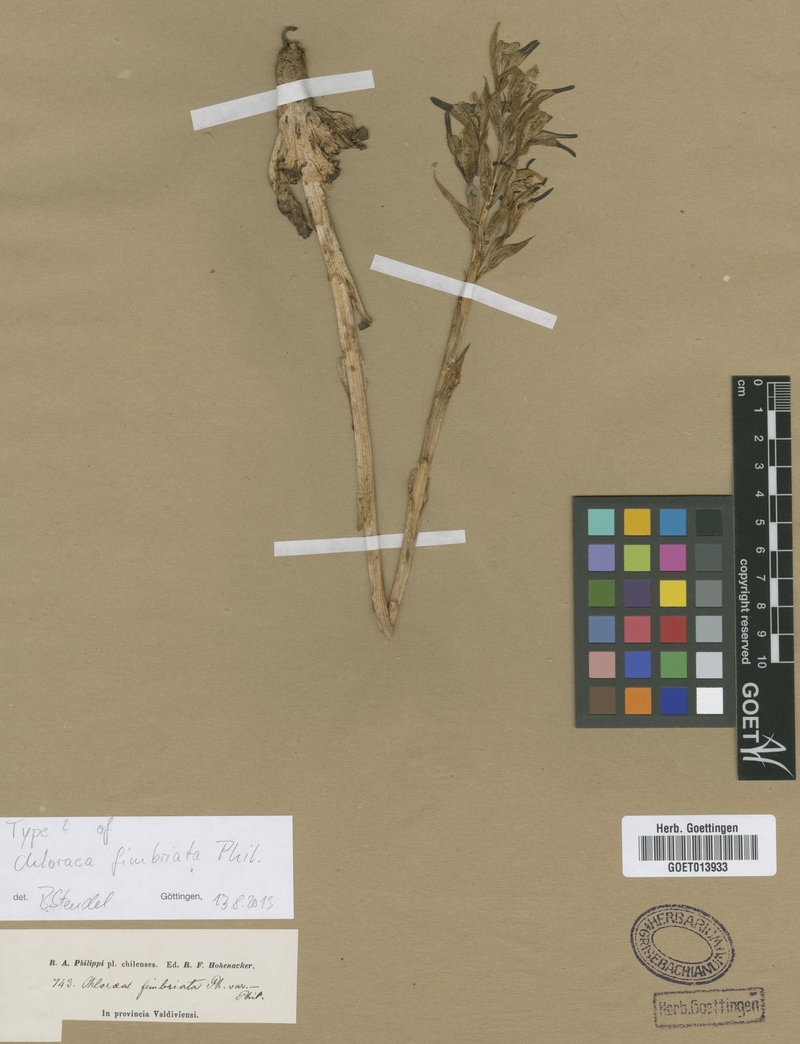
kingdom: Plantae
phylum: Tracheophyta
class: Liliopsida
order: Asparagales
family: Orchidaceae
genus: Chloraea
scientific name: Chloraea piquichen
